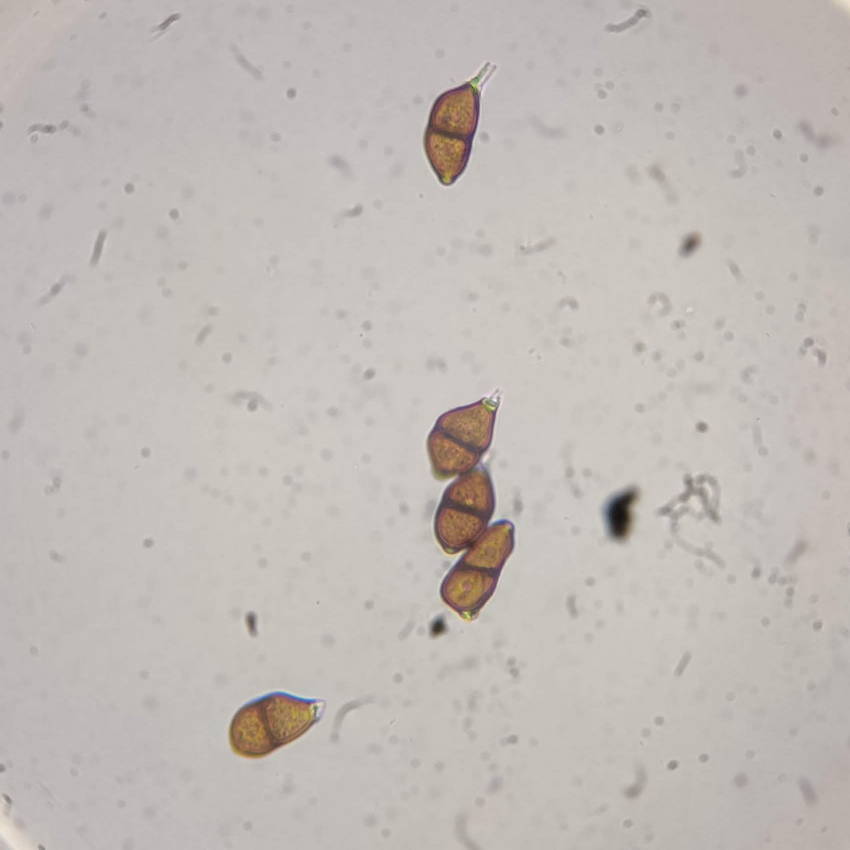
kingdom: Fungi
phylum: Basidiomycota
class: Pucciniomycetes
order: Pucciniales
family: Pucciniaceae
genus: Puccinia
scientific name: Puccinia
